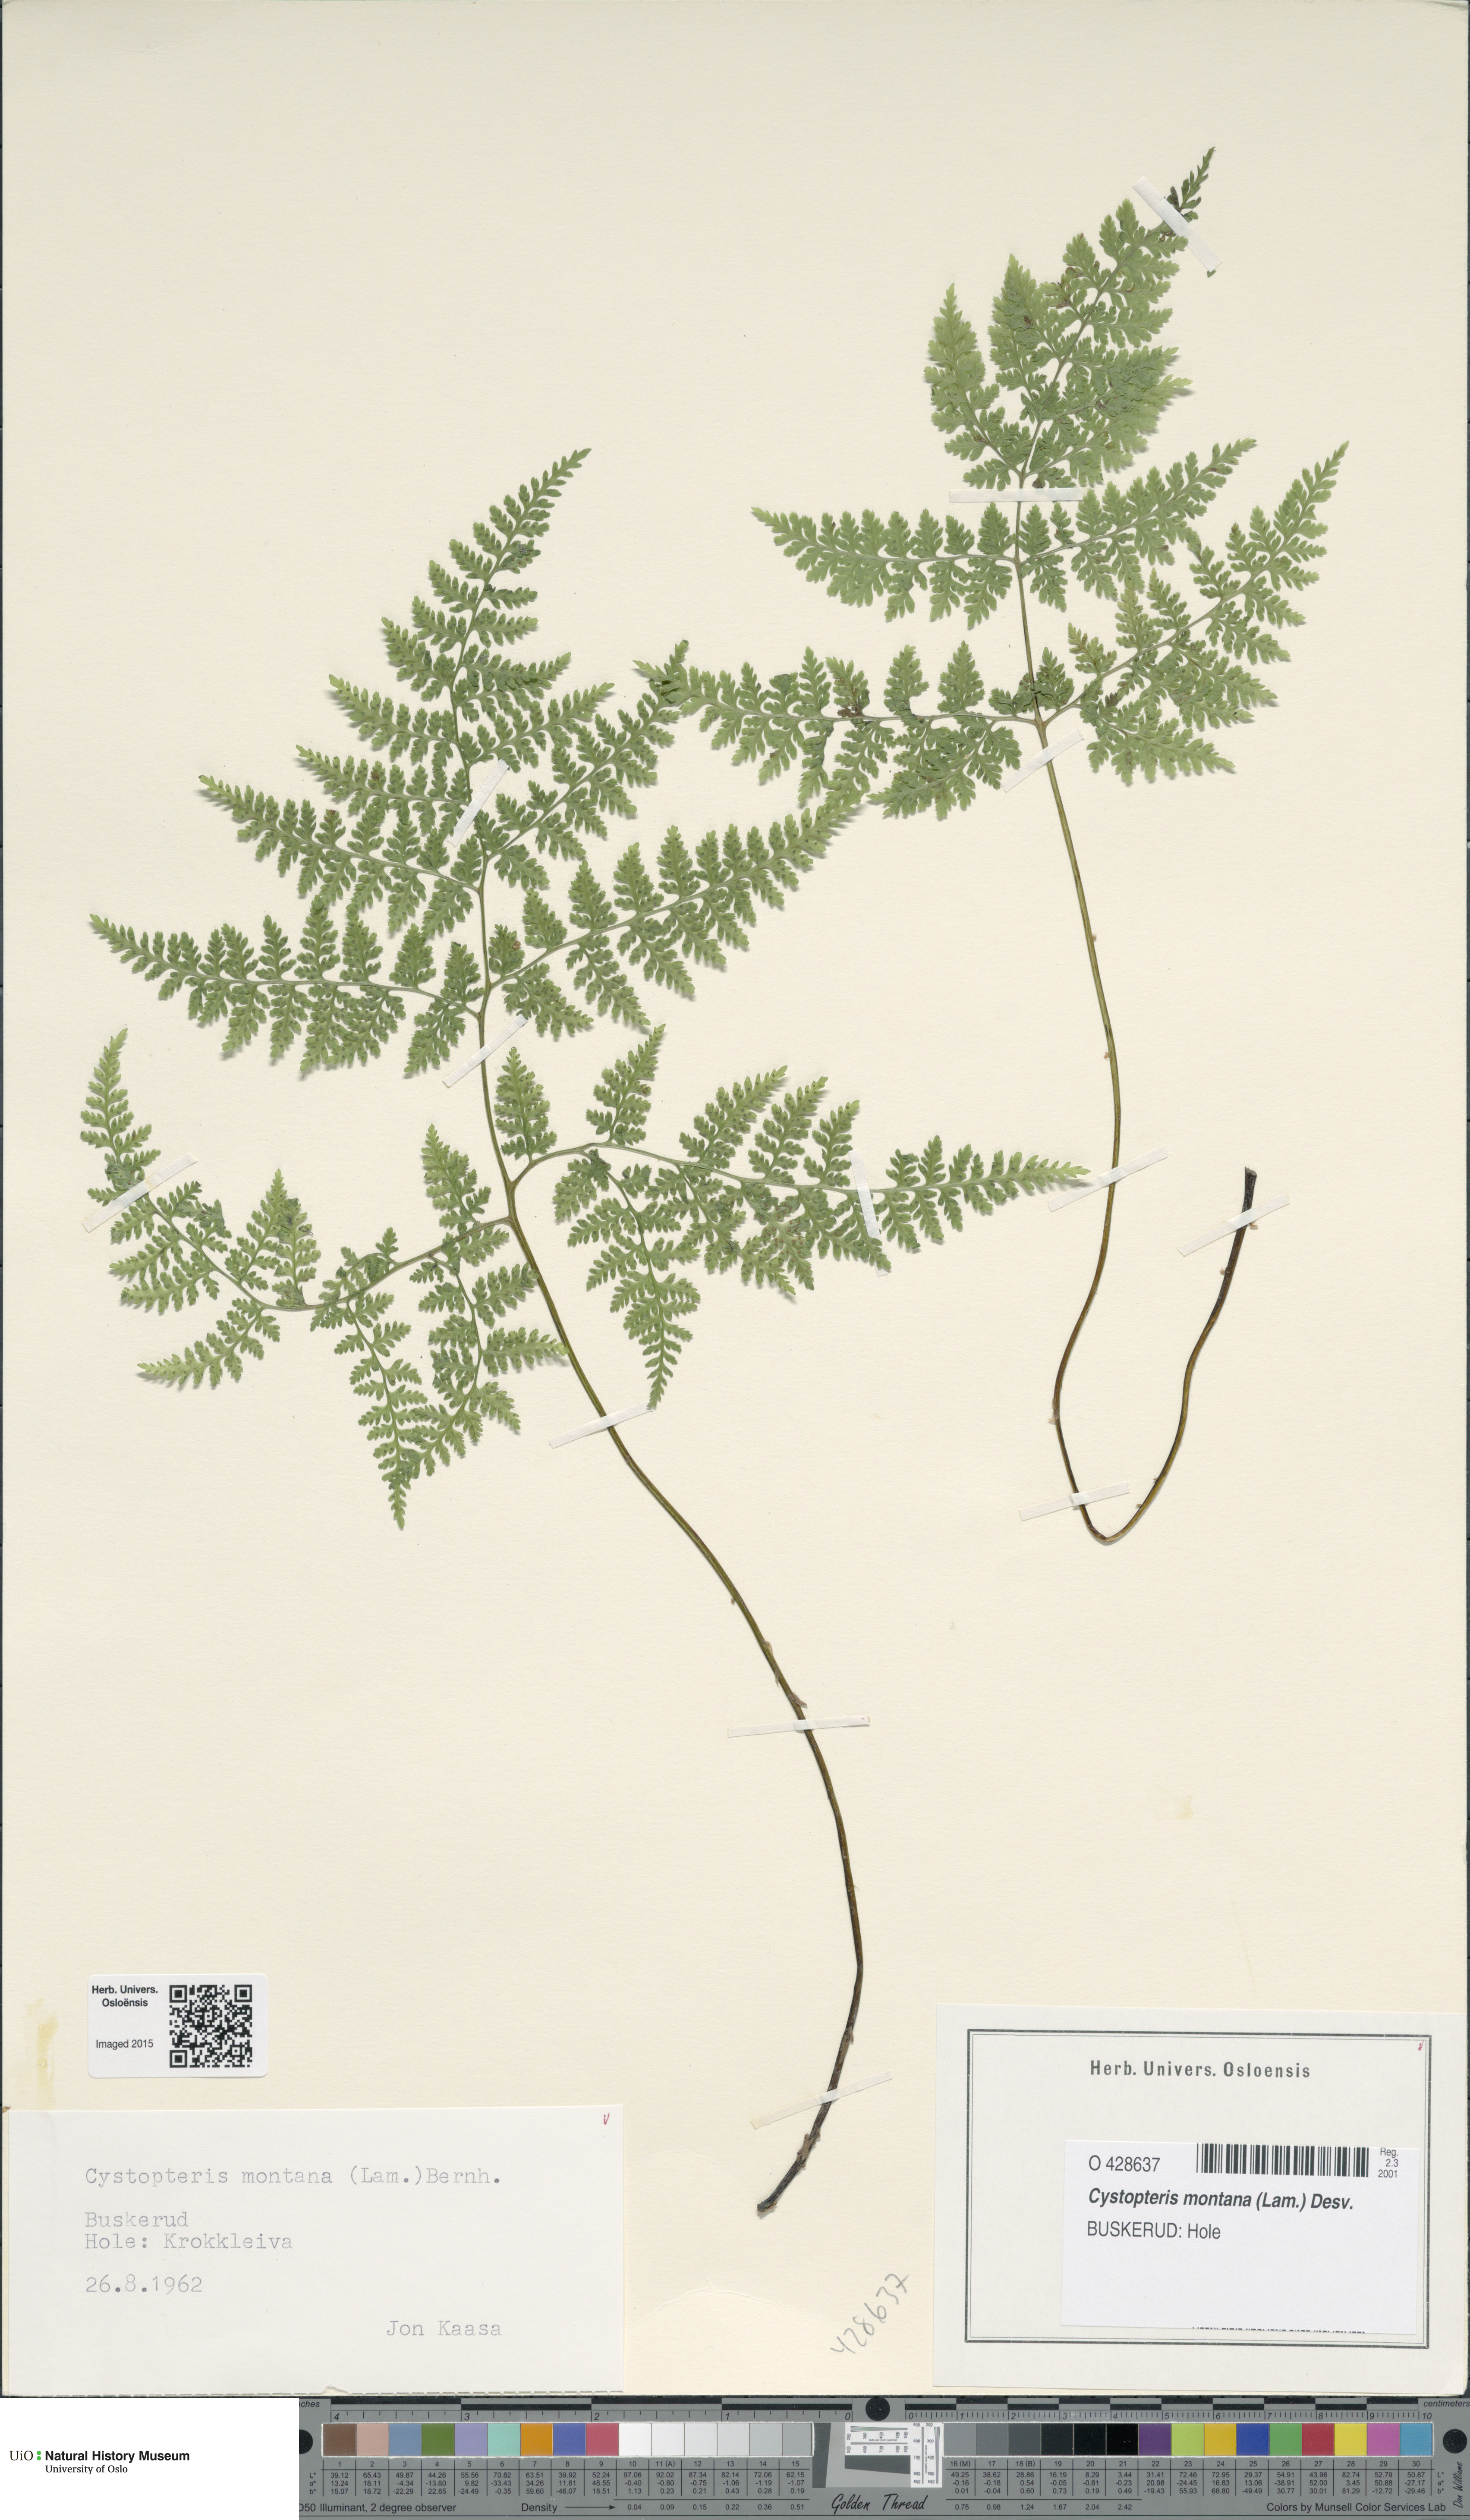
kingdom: Plantae
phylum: Tracheophyta
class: Polypodiopsida
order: Polypodiales
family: Cystopteridaceae
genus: Cystopteris
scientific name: Cystopteris montana
